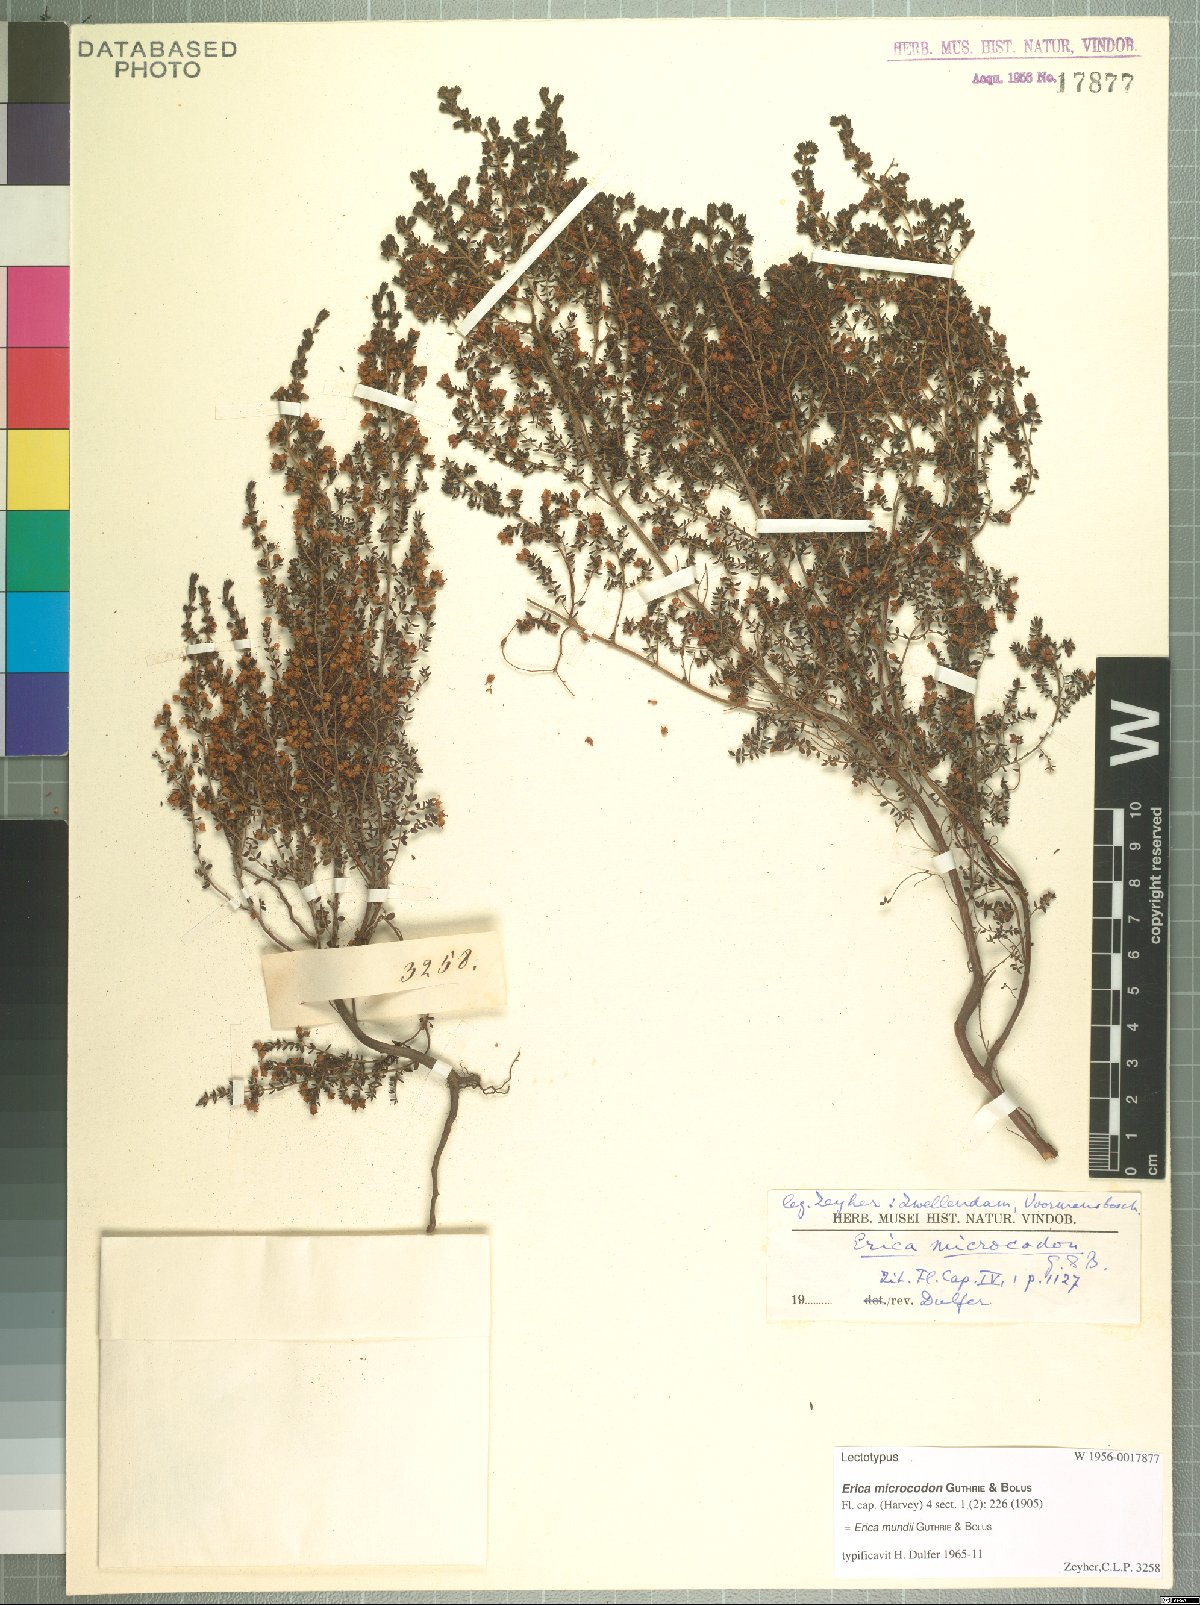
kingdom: Plantae
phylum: Tracheophyta
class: Magnoliopsida
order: Ericales
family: Ericaceae
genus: Erica
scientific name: Erica mundii
